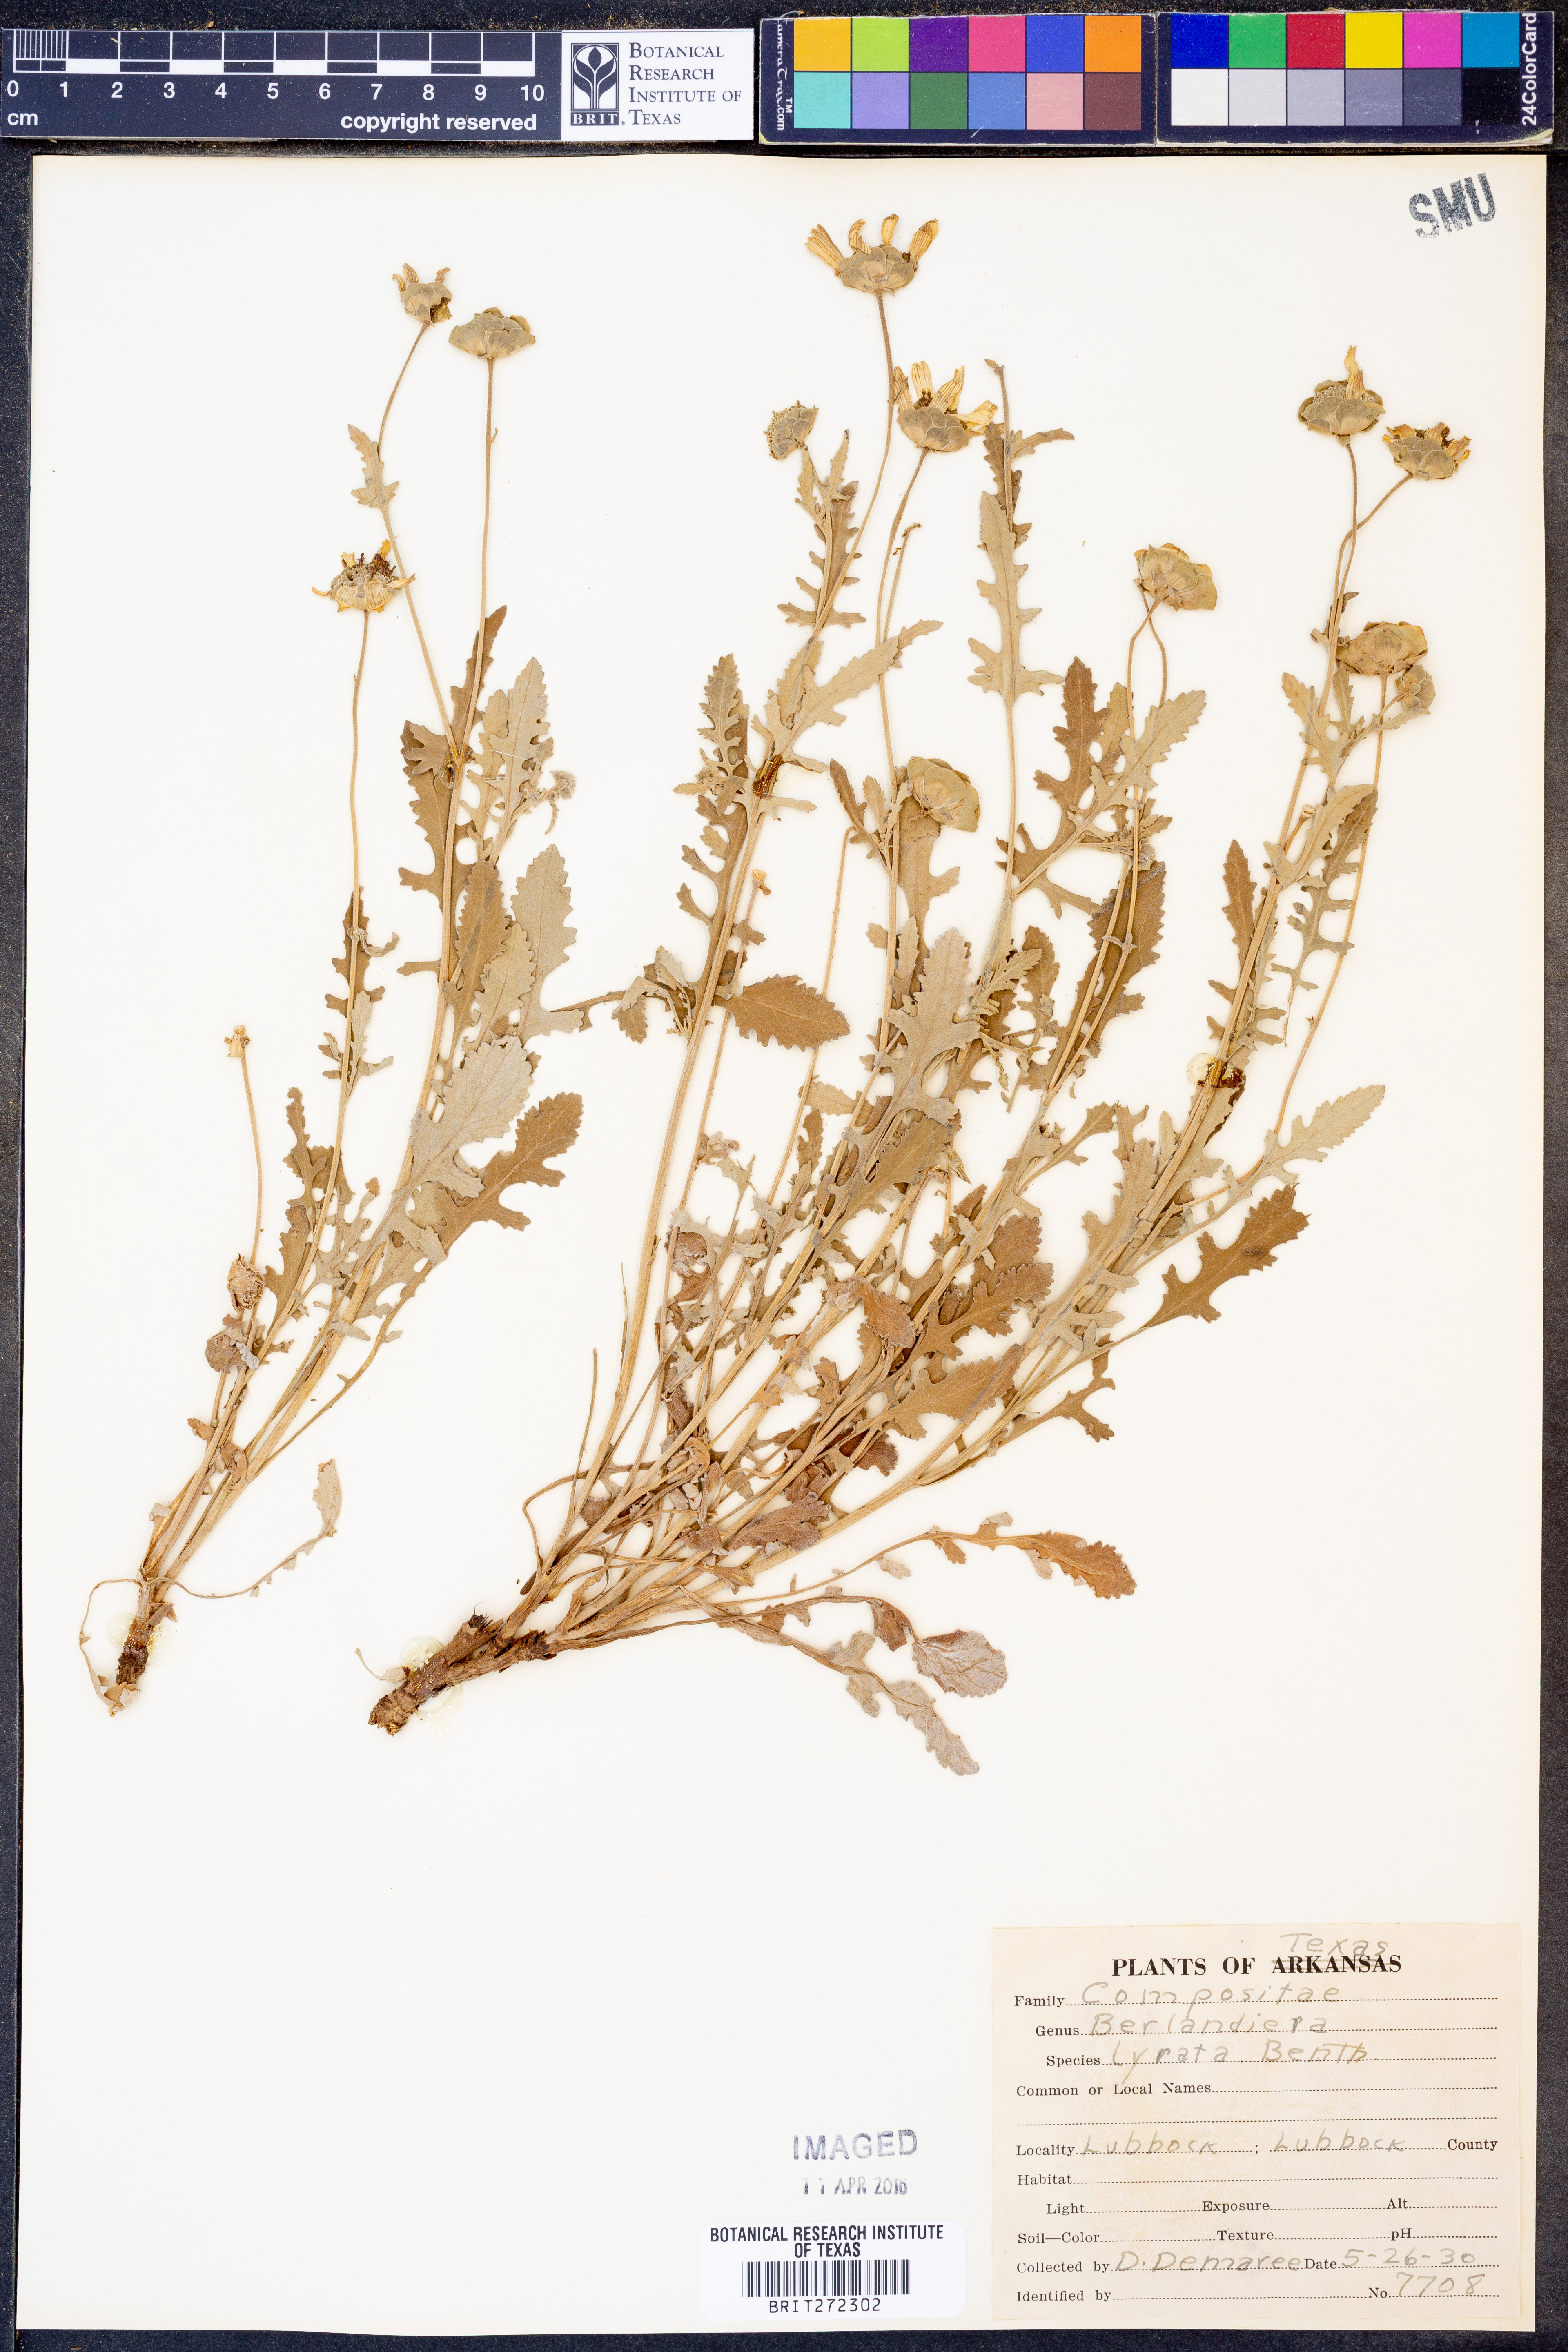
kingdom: Plantae
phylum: Tracheophyta
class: Magnoliopsida
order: Asterales
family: Asteraceae
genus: Berlandiera
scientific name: Berlandiera lyrata
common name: Chocolate-flower
